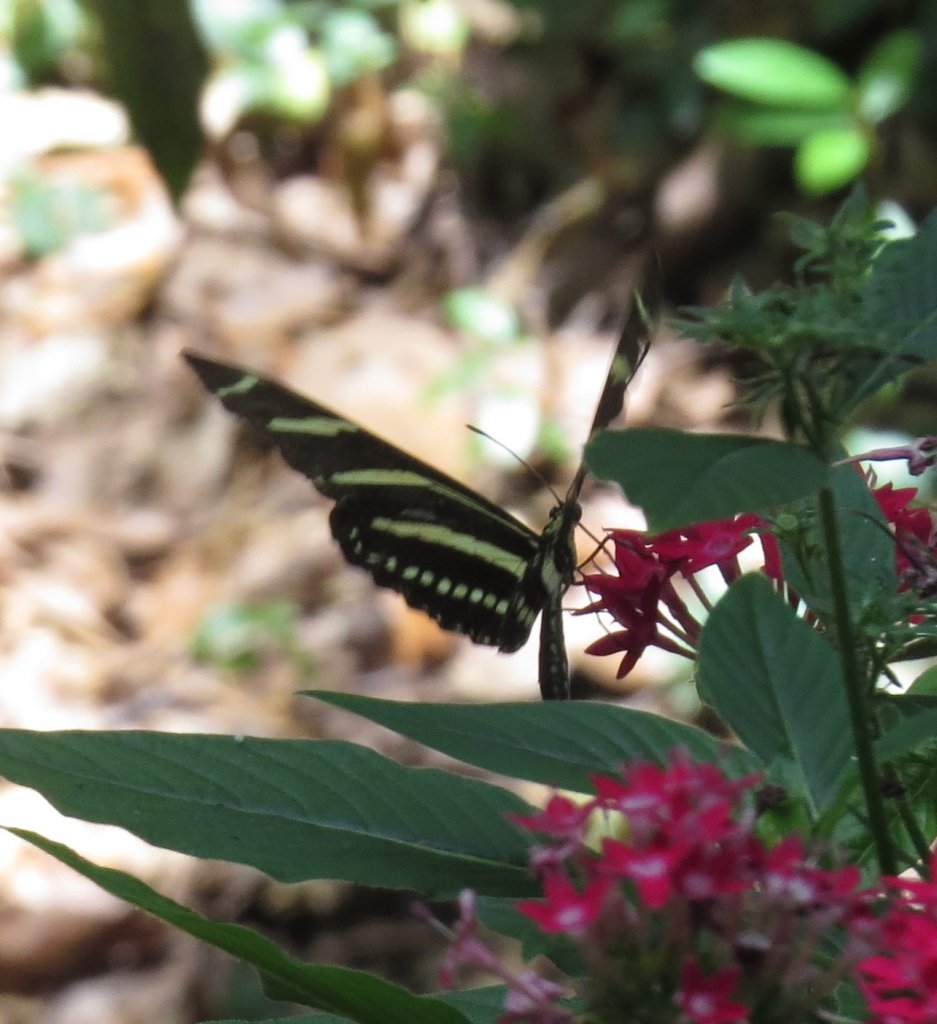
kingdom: Animalia
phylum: Arthropoda
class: Insecta
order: Lepidoptera
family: Nymphalidae
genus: Heliconius
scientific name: Heliconius charithonia
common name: Zebra Longwing
